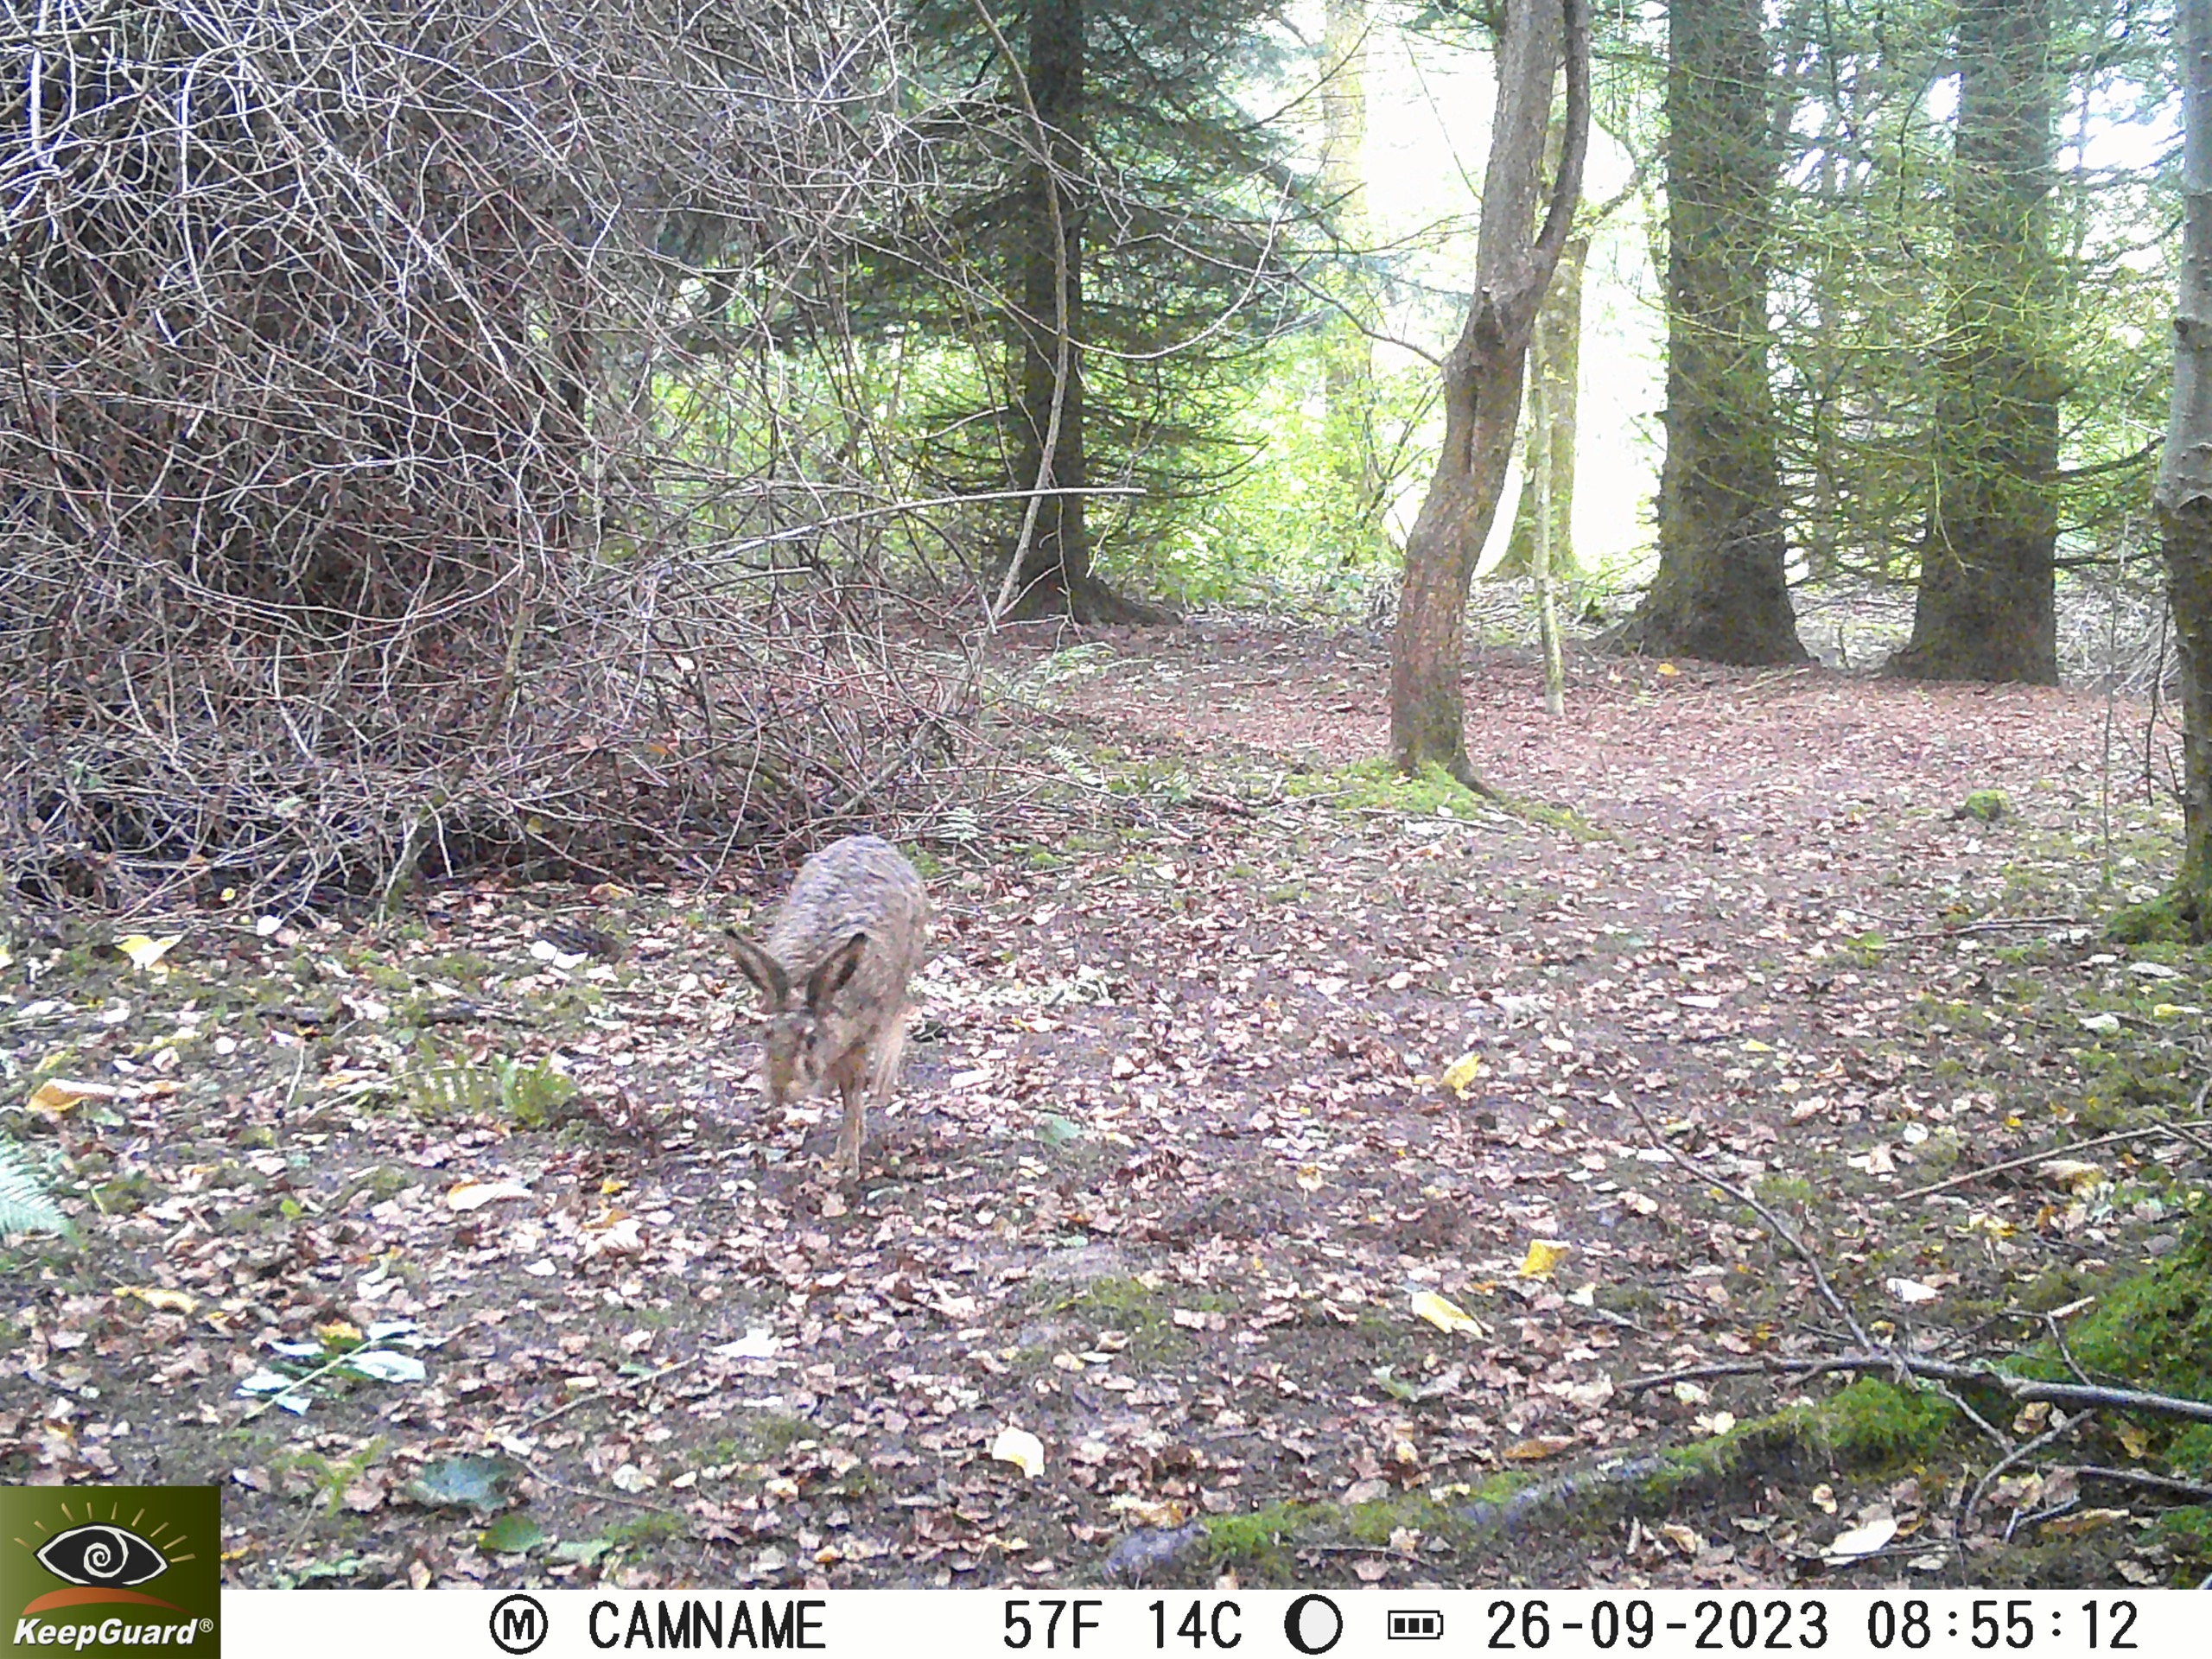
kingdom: Animalia
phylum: Chordata
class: Mammalia
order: Lagomorpha
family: Leporidae
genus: Lepus
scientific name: Lepus europaeus
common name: Hare
